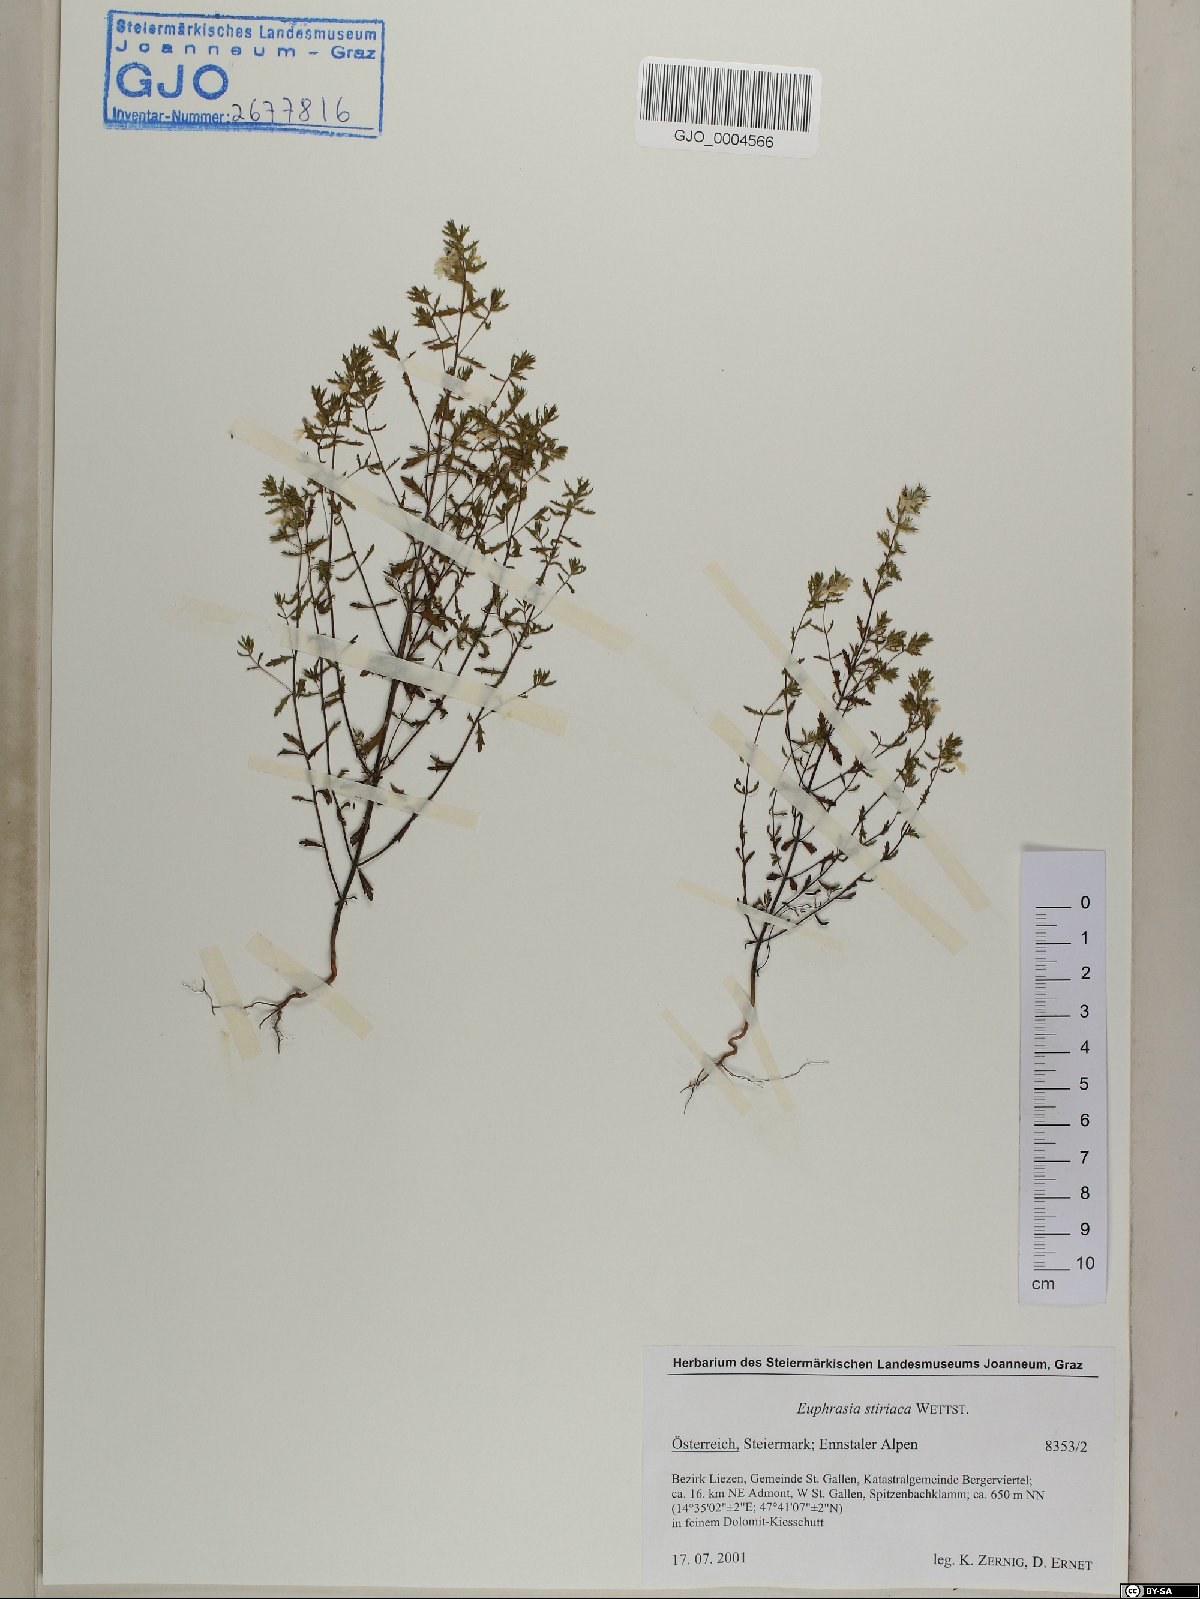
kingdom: Plantae
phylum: Tracheophyta
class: Magnoliopsida
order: Lamiales
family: Orobanchaceae
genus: Euphrasia
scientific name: Euphrasia cuspidata
